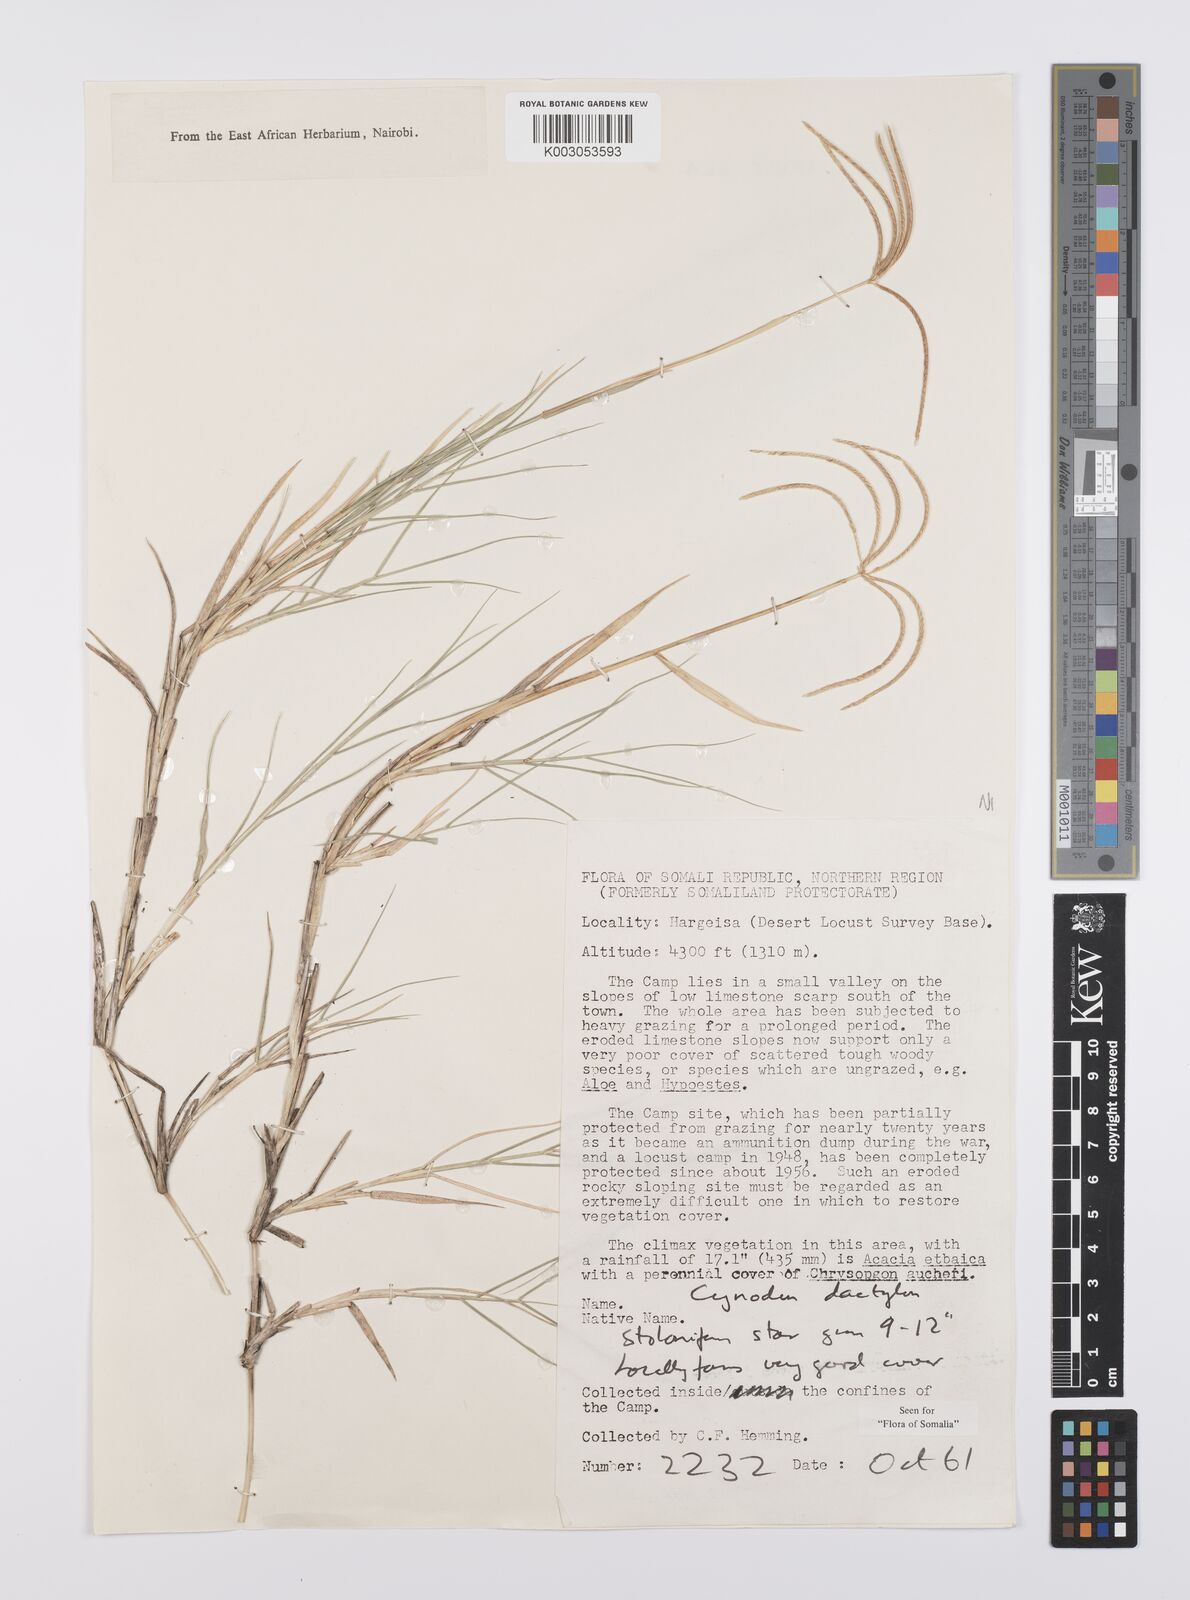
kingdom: Plantae
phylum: Tracheophyta
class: Liliopsida
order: Poales
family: Poaceae
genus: Cynodon
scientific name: Cynodon dactylon
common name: Bermuda grass
